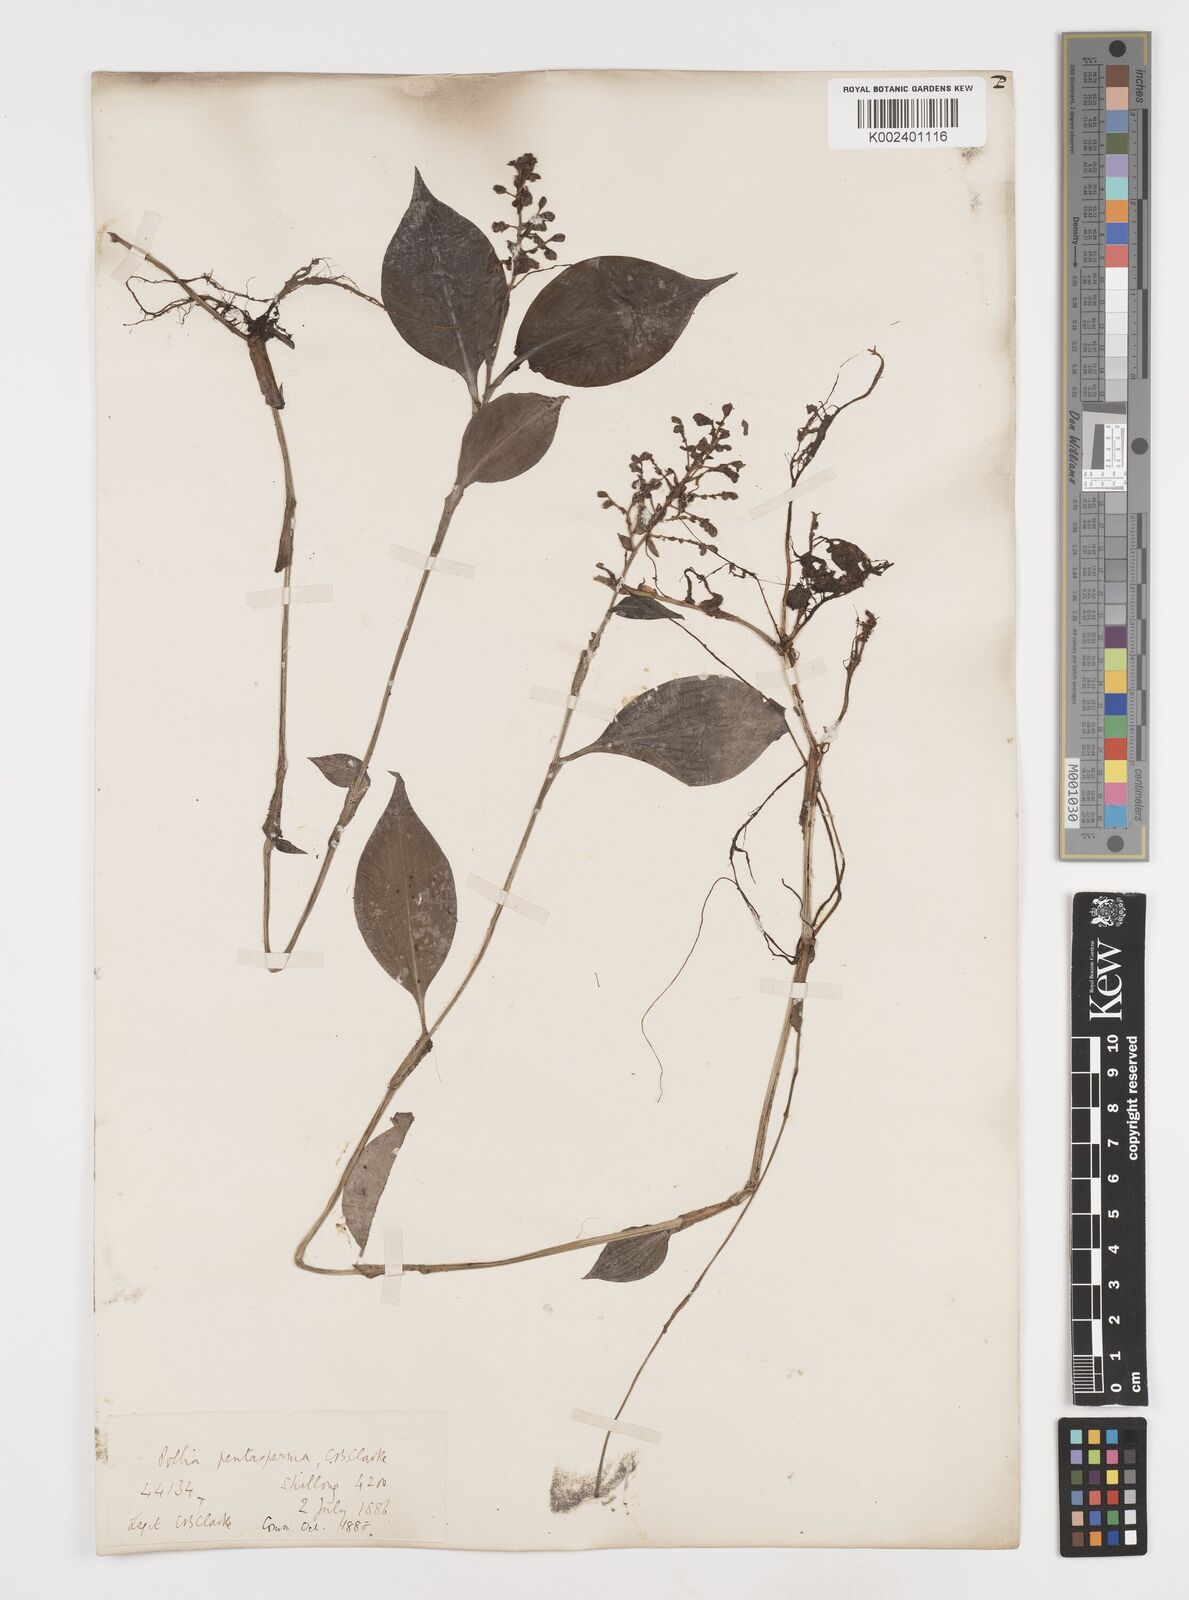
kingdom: Plantae
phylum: Tracheophyta
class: Liliopsida
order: Commelinales
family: Commelinaceae
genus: Pollia
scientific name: Pollia pentasperma
